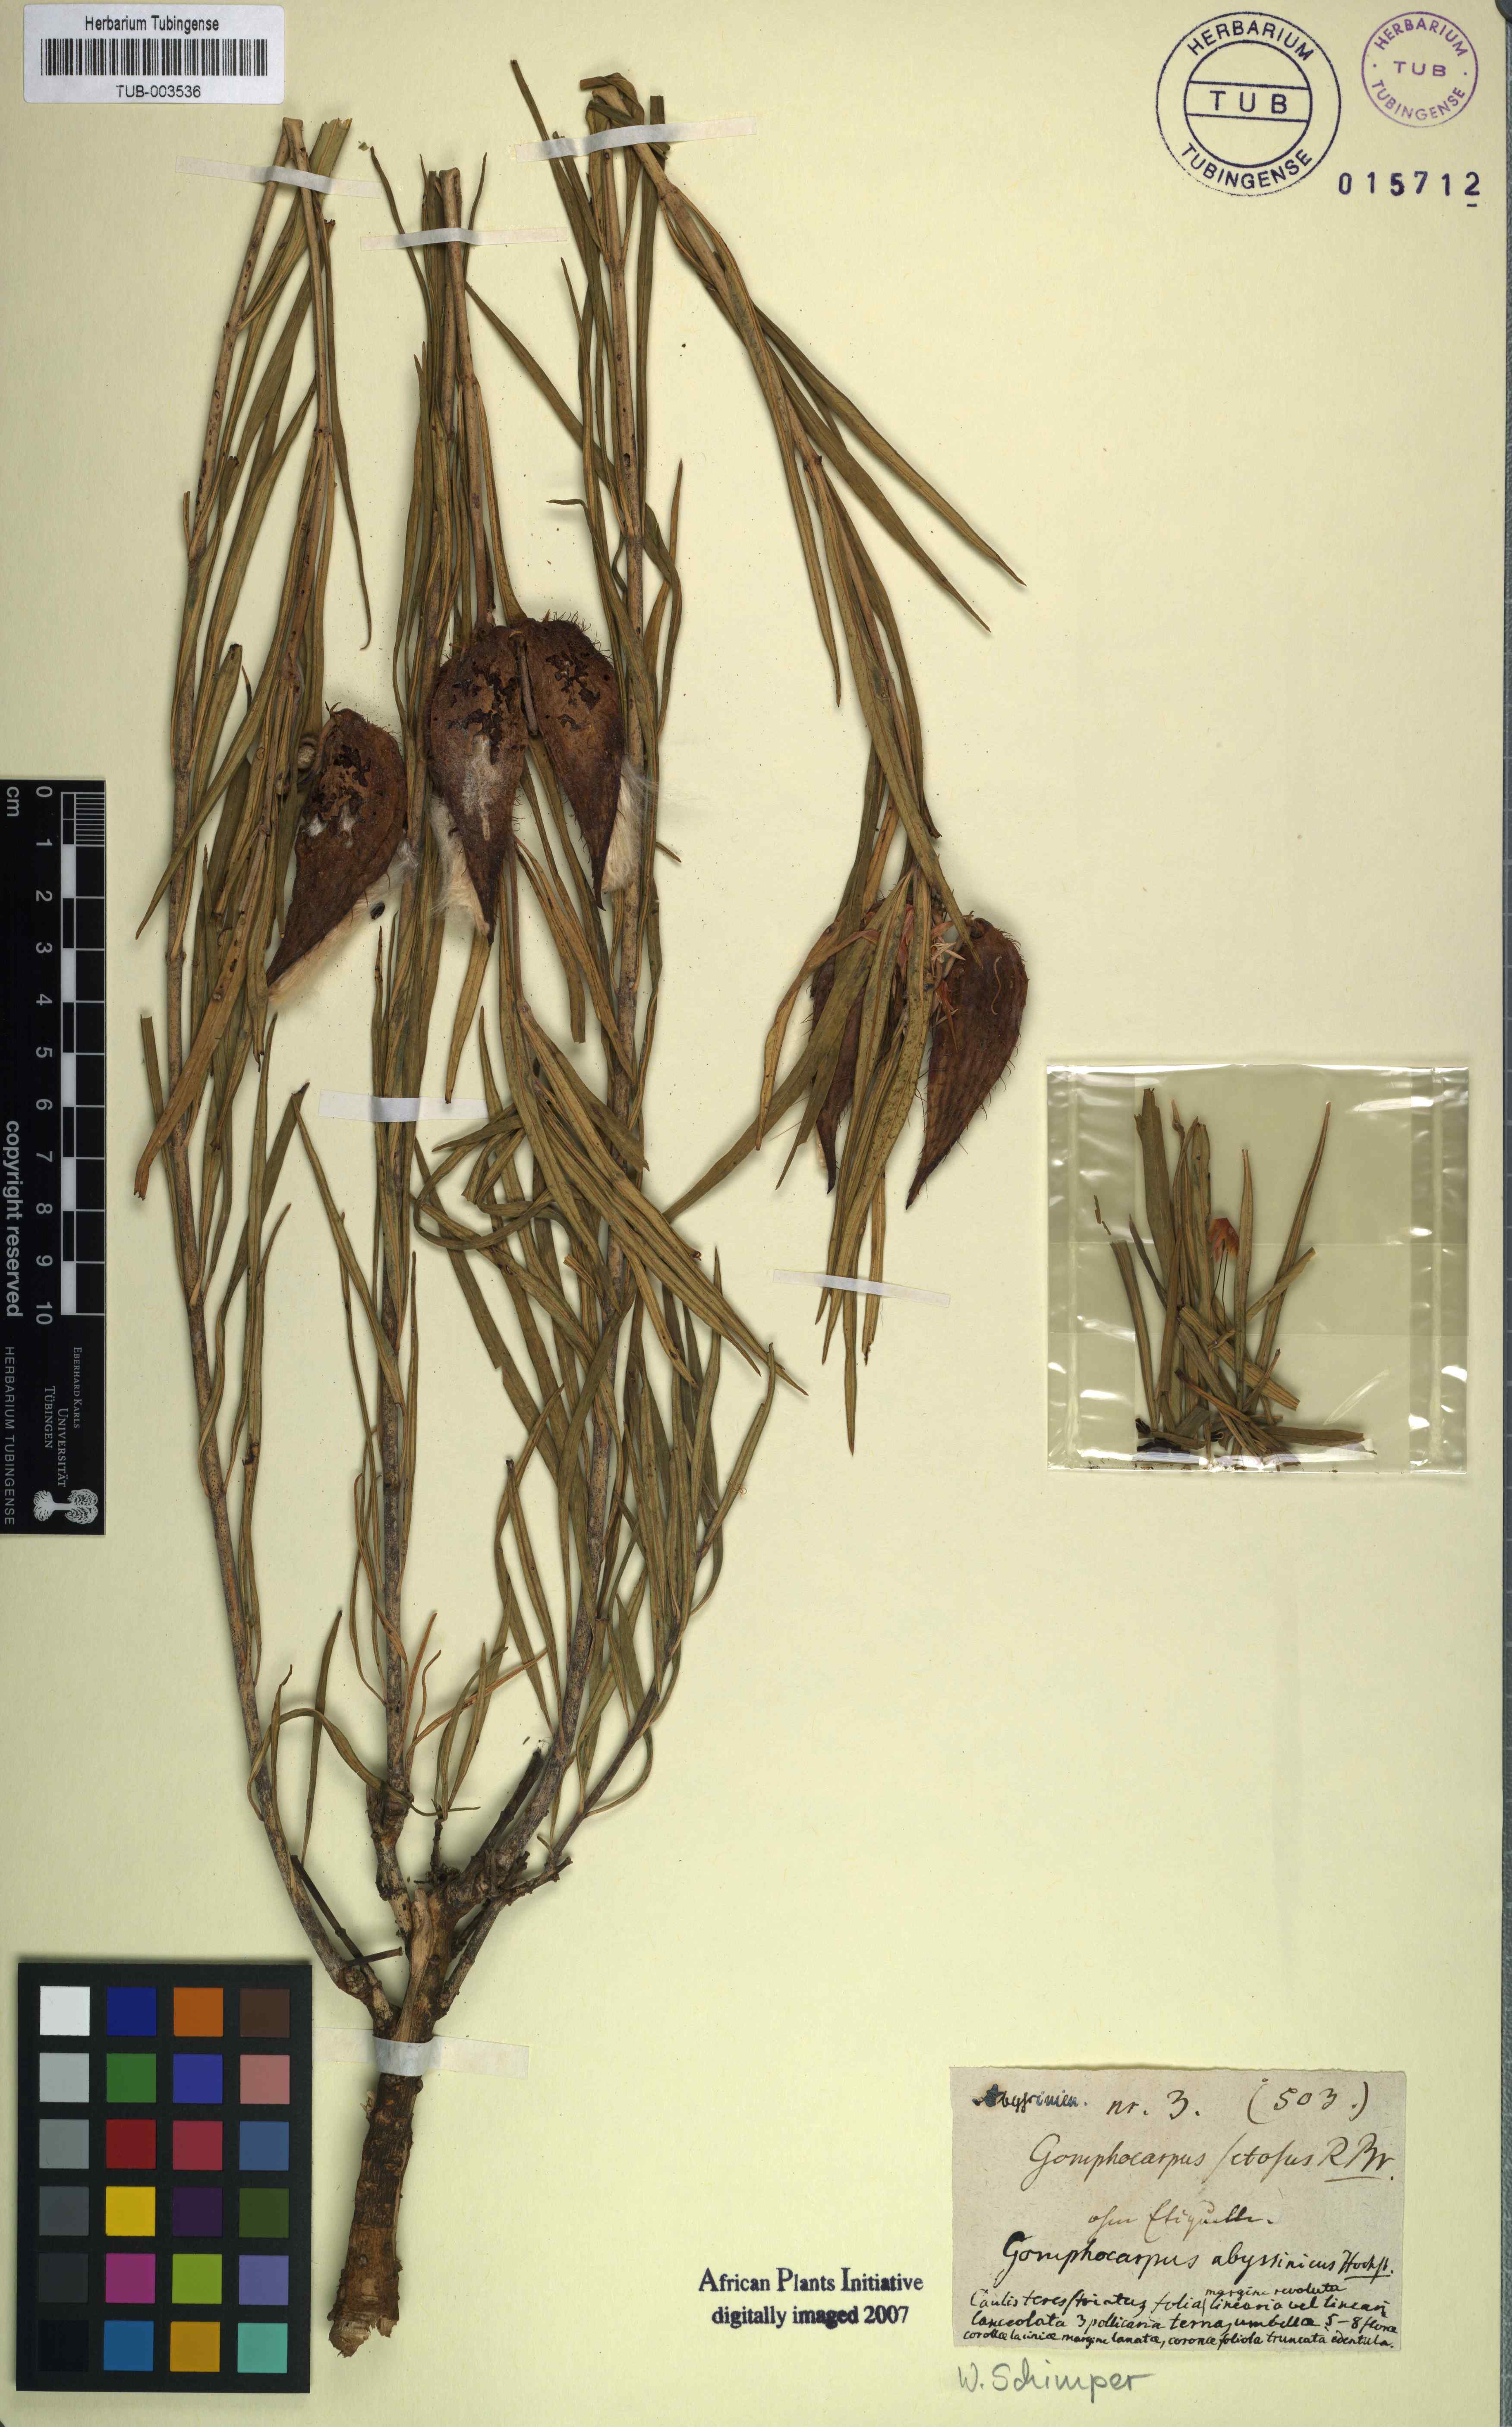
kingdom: Plantae
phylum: Tracheophyta
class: Magnoliopsida
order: Gentianales
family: Apocynaceae
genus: Gomphocarpus
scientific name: Gomphocarpus fruticosus
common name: Milkweed
